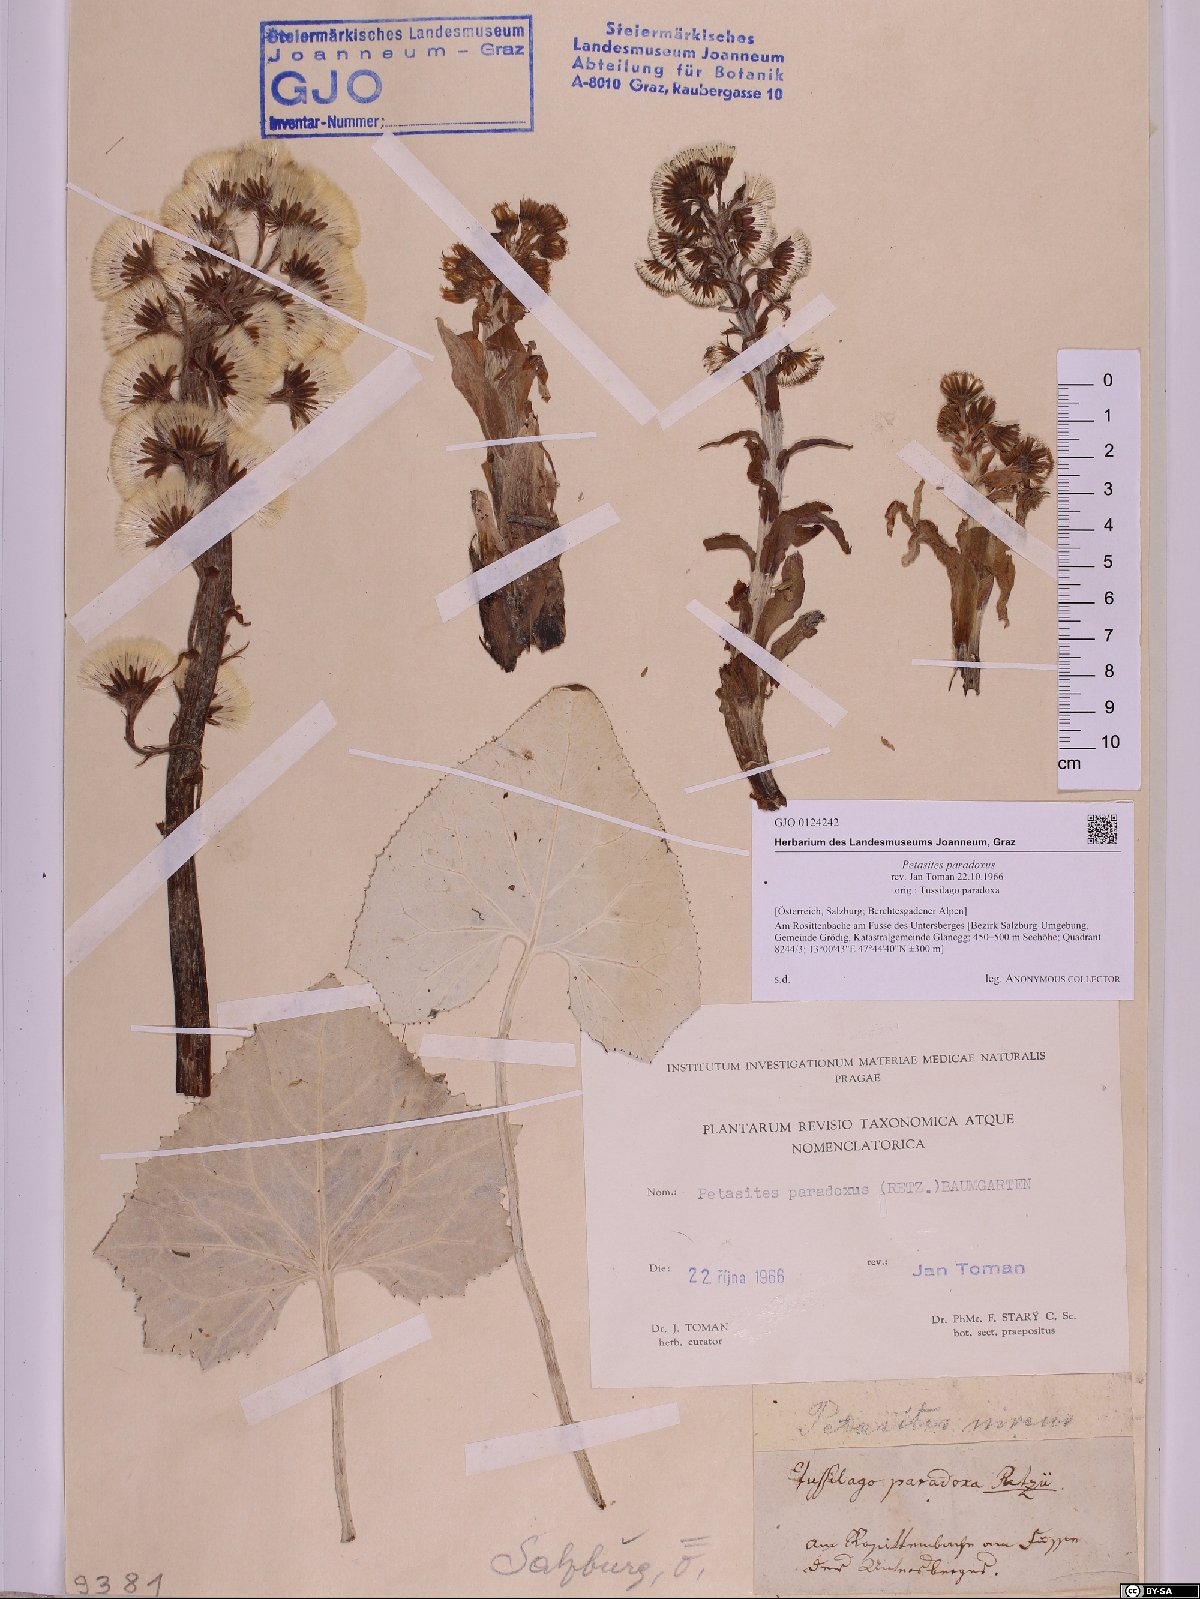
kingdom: Plantae
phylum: Tracheophyta
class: Magnoliopsida
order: Asterales
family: Asteraceae
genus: Petasites
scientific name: Petasites paradoxus
